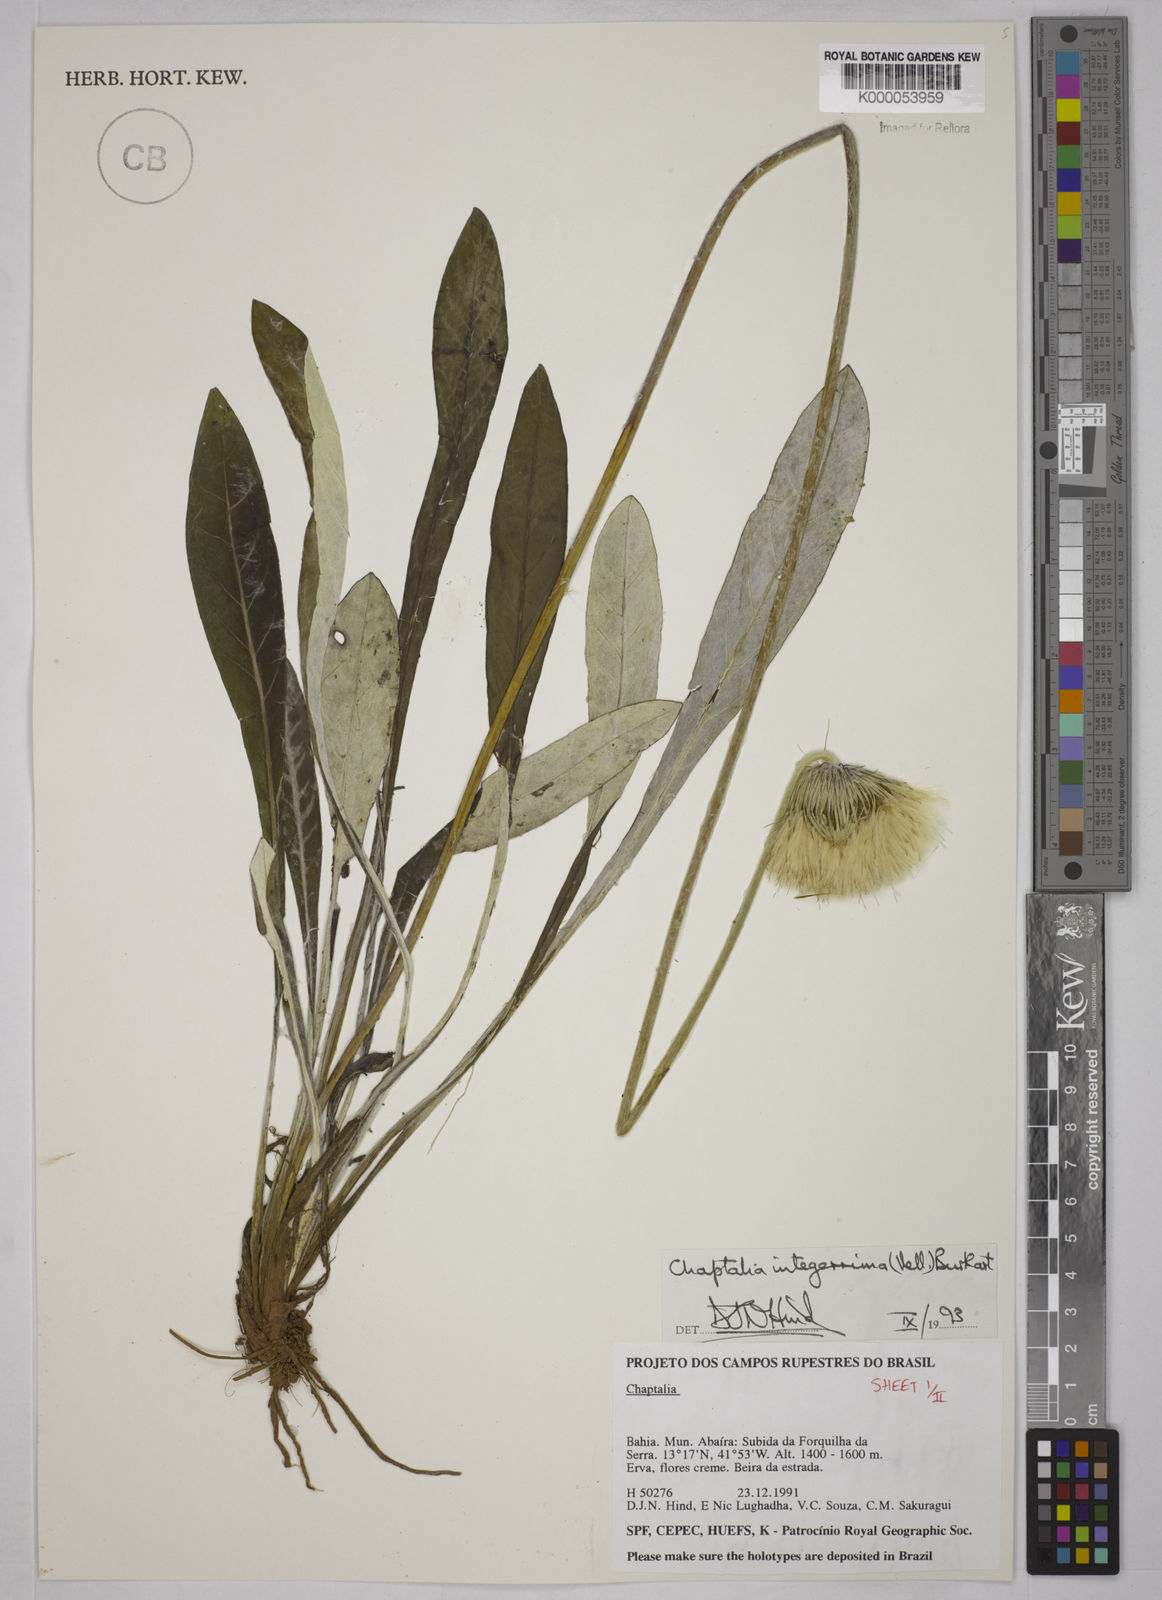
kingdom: Plantae
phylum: Tracheophyta
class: Magnoliopsida
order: Asterales
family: Asteraceae
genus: Chaptalia
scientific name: Chaptalia integerrima
